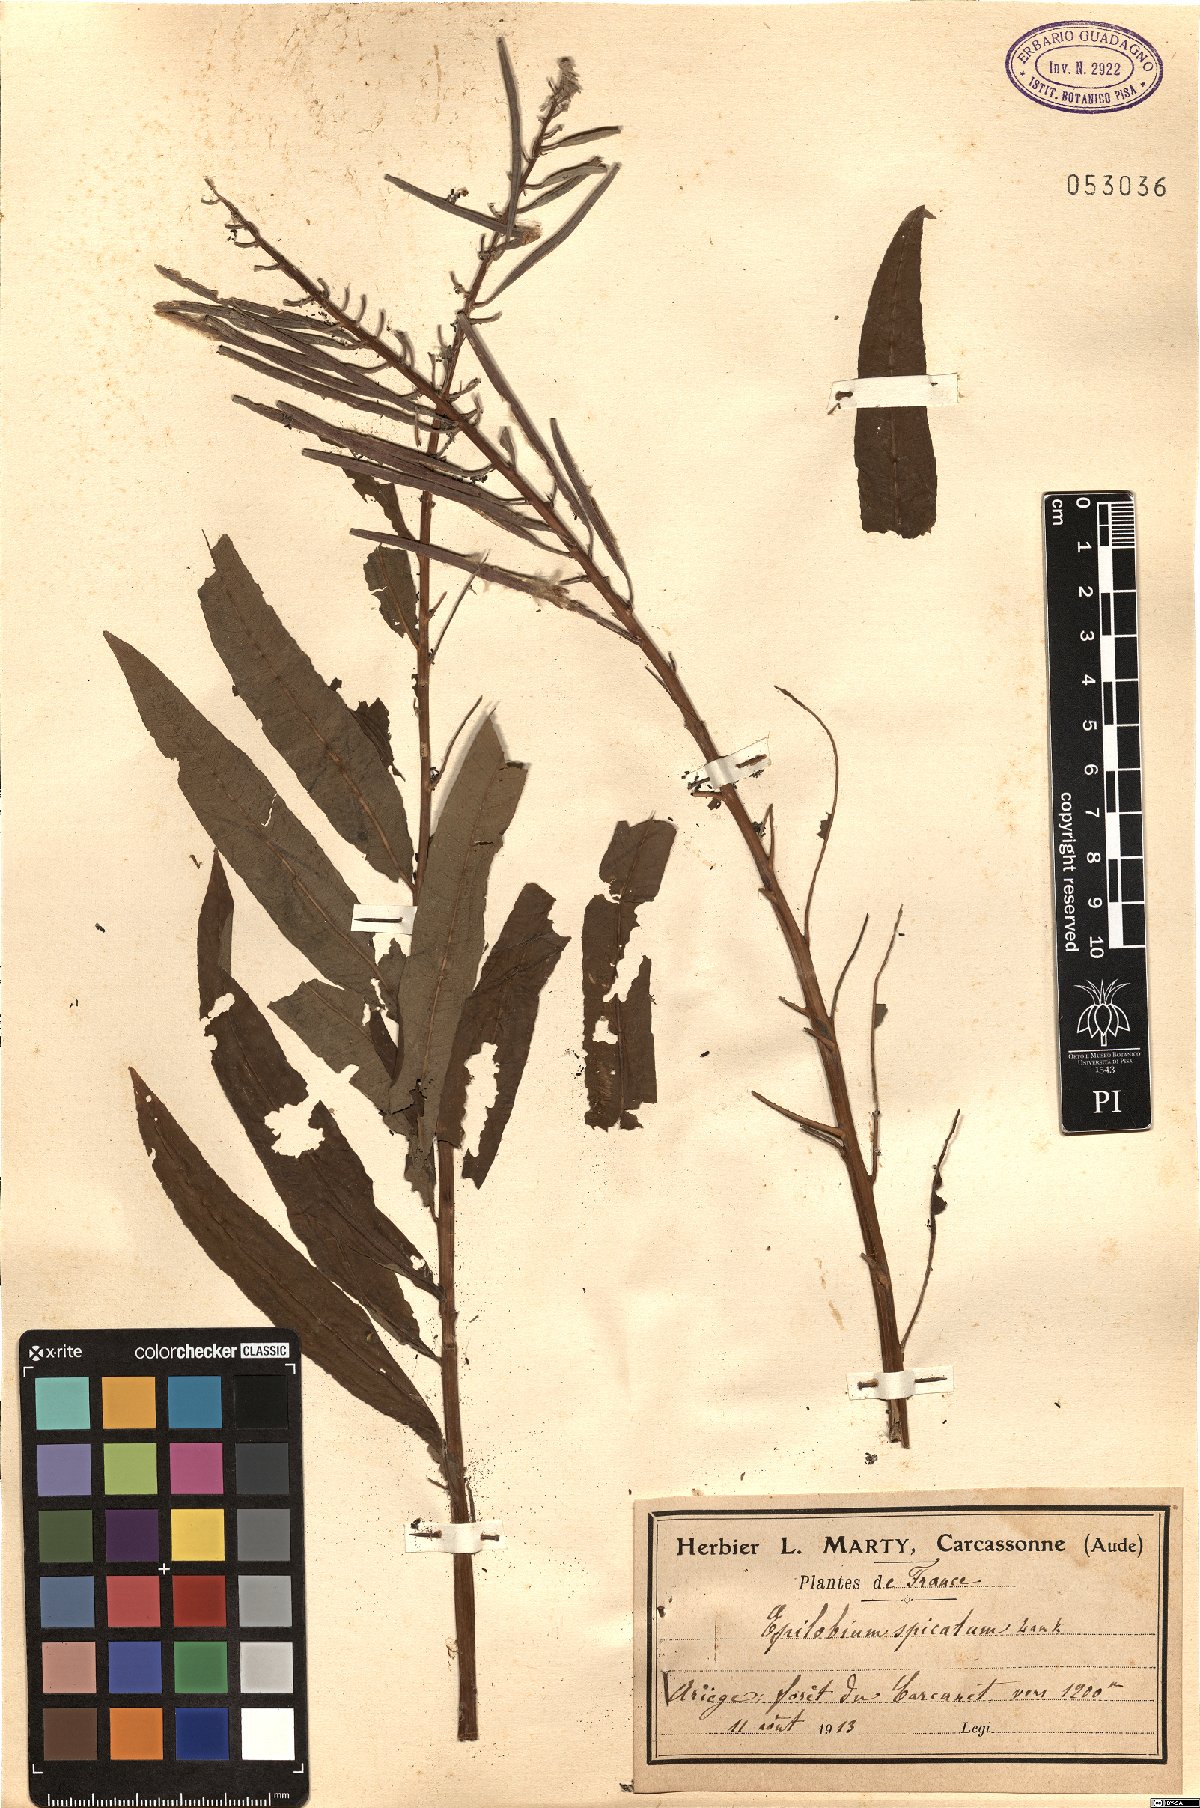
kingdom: Plantae
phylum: Tracheophyta
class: Magnoliopsida
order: Myrtales
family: Onagraceae
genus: Chamaenerion
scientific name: Chamaenerion angustifolium
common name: Fireweed
